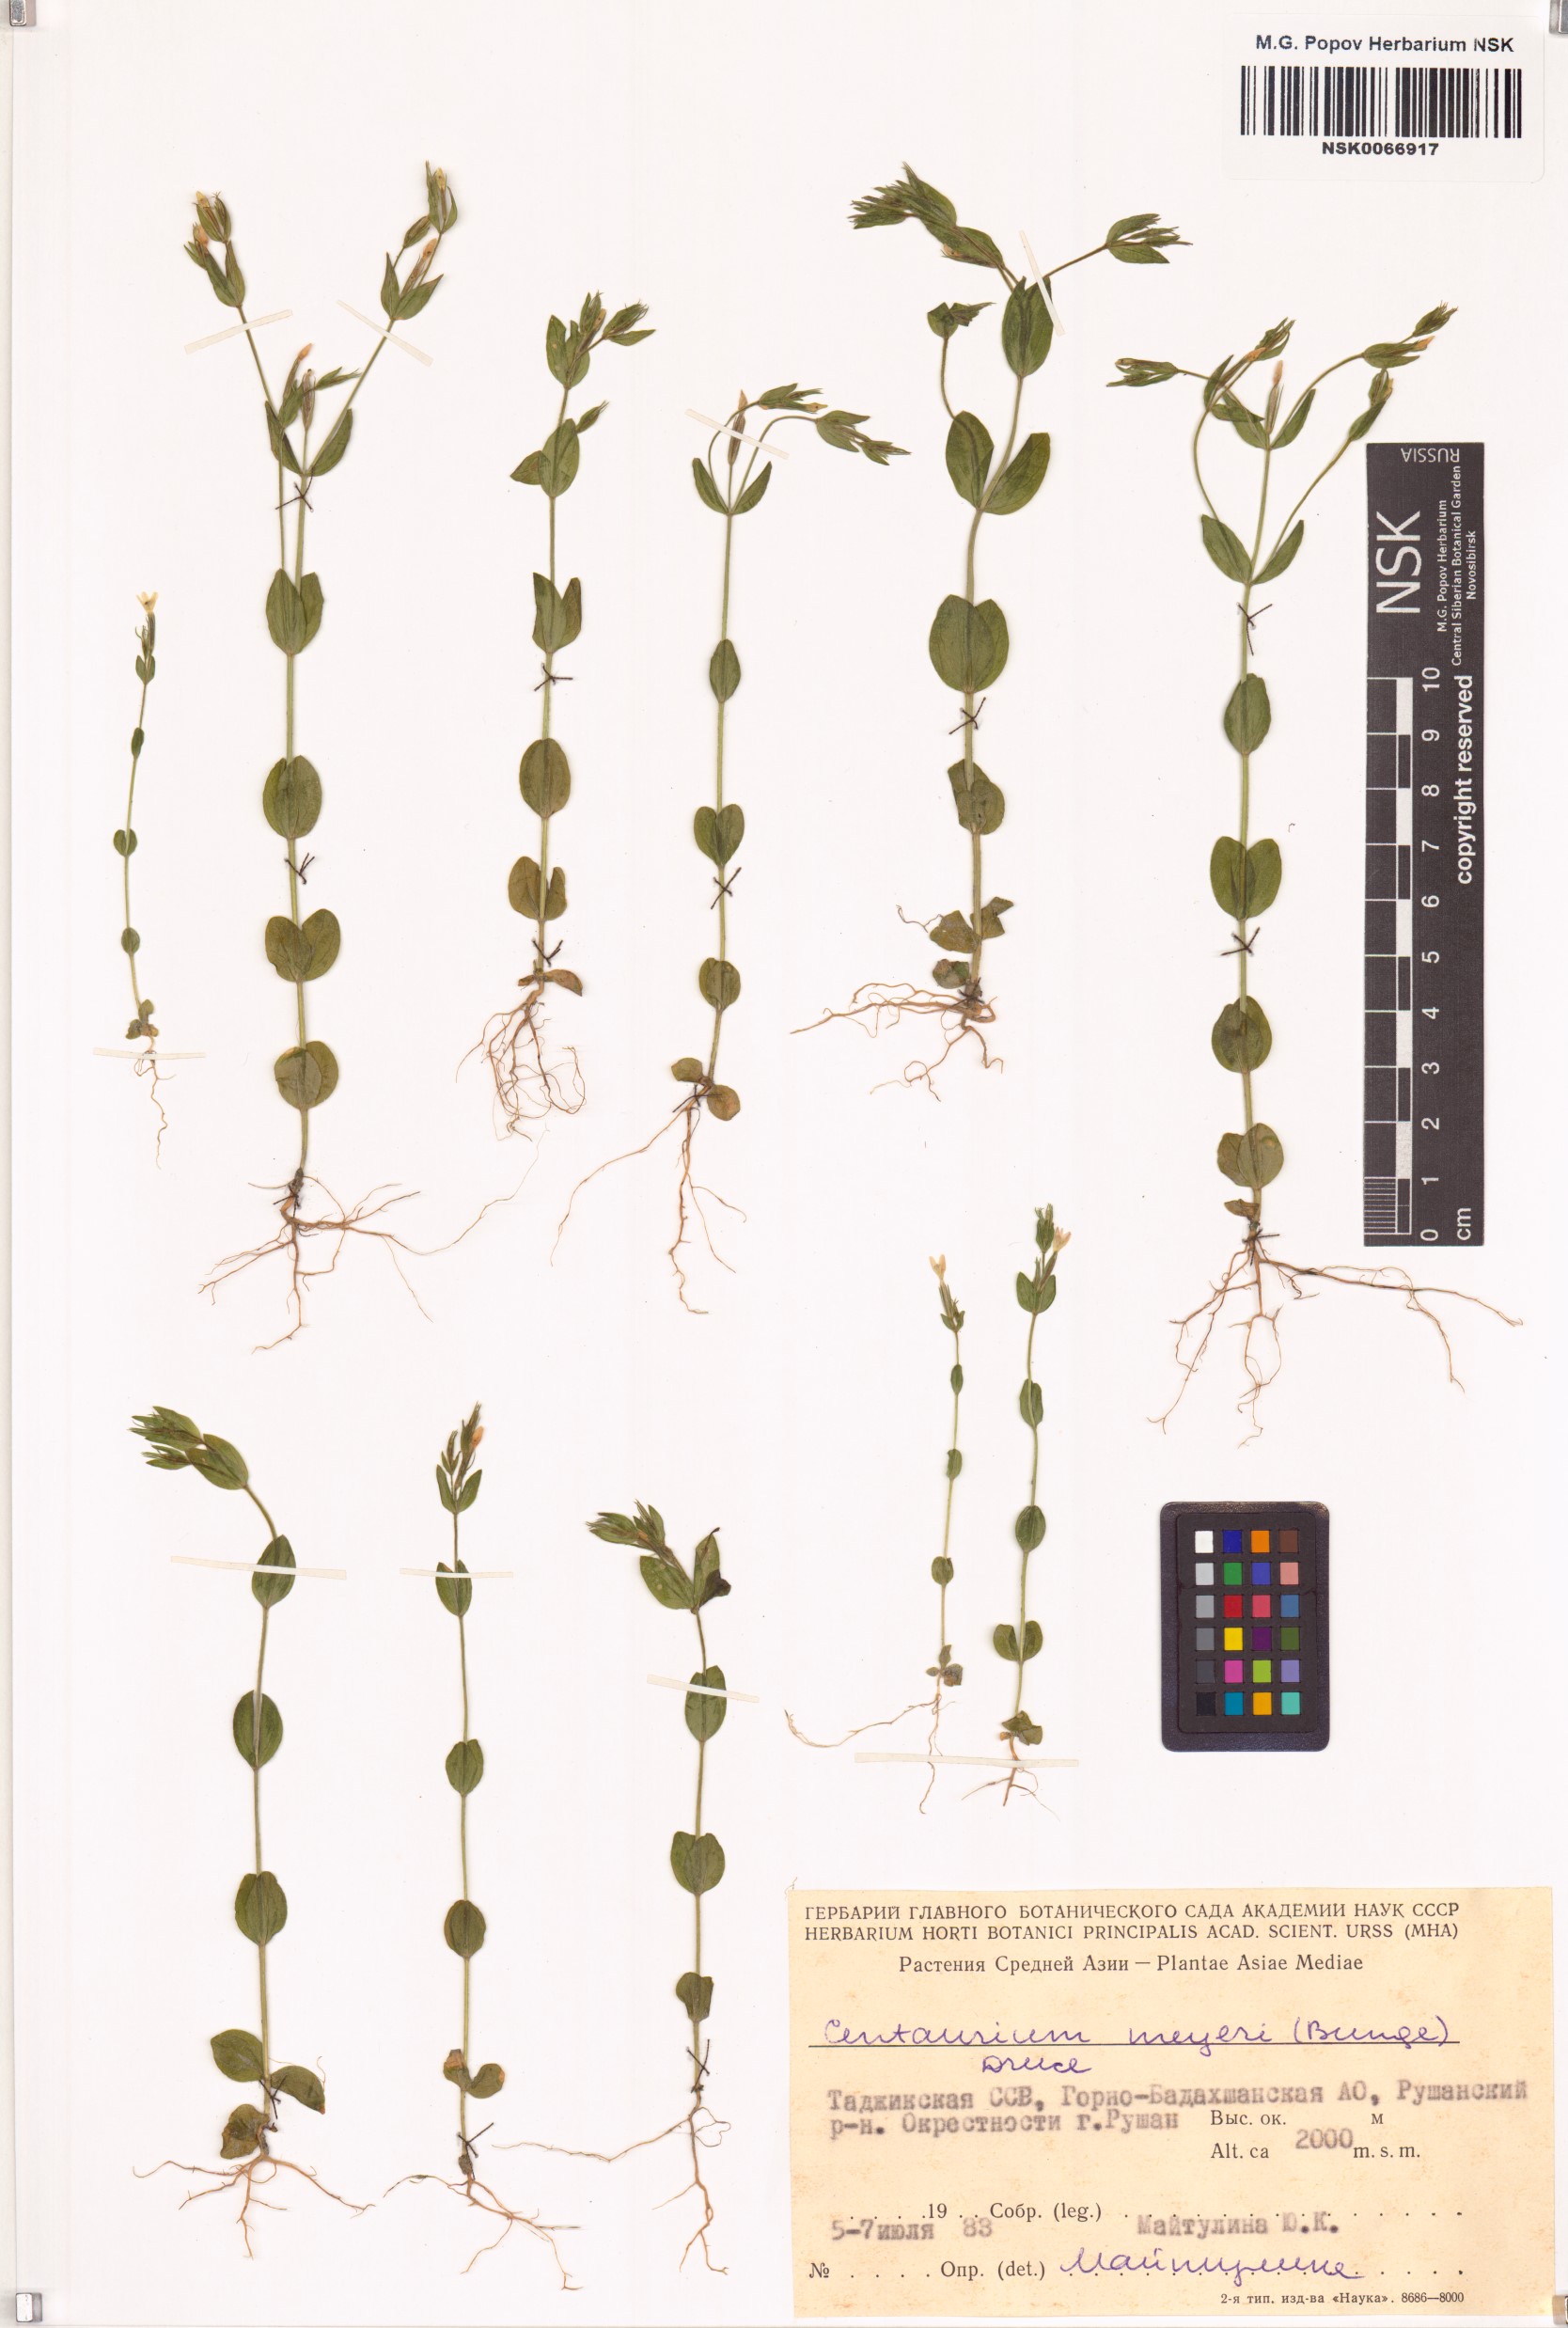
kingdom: Plantae
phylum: Tracheophyta
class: Magnoliopsida
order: Gentianales
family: Gentianaceae
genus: Centaurium
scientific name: Centaurium pulchellum
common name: Lesser centaury
